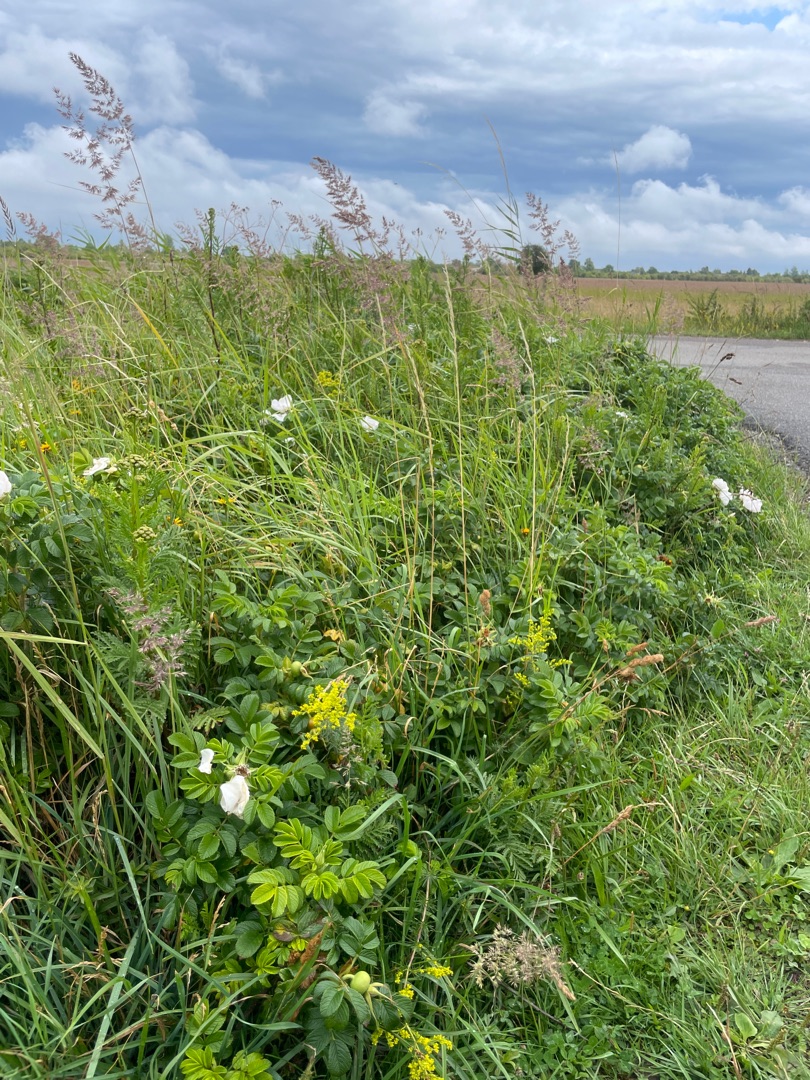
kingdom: Plantae
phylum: Tracheophyta
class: Magnoliopsida
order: Rosales
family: Rosaceae
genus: Rosa
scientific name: Rosa rugosa
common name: Rynket rose
